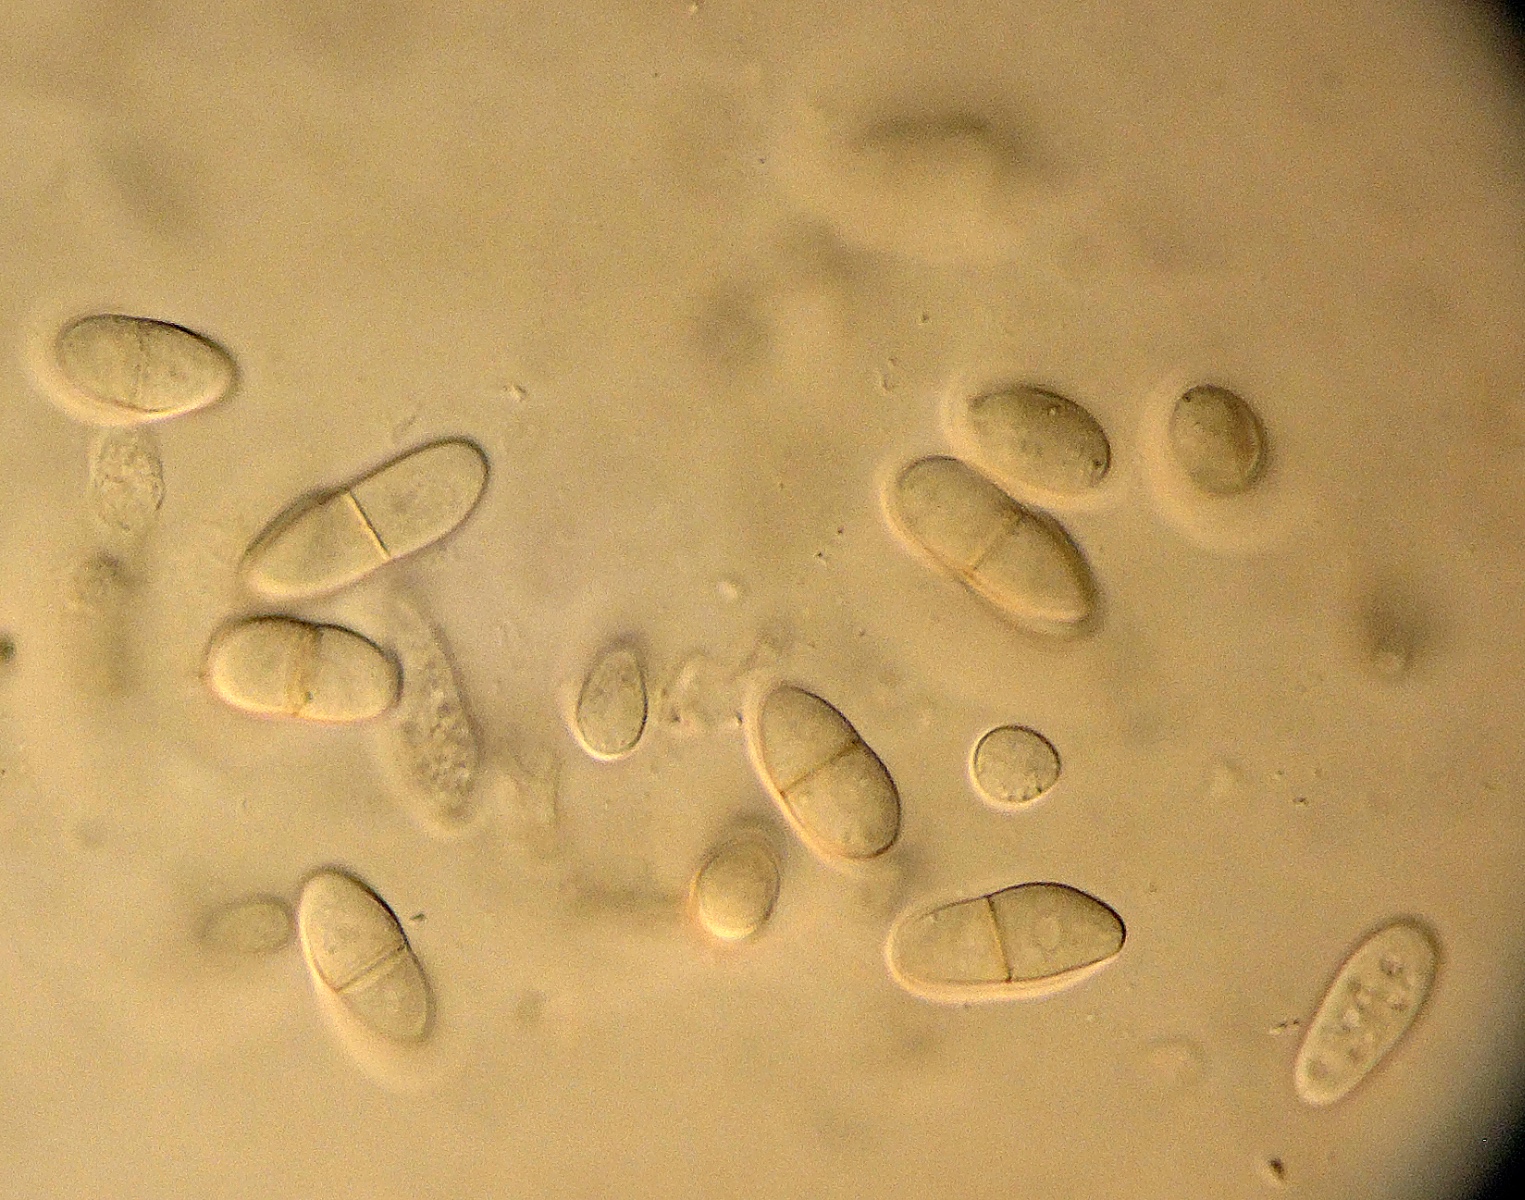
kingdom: Fungi
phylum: Ascomycota
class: Dothideomycetes
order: Pleosporales
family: Didymellaceae
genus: Ascochyta
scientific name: Ascochyta sarmenticia
